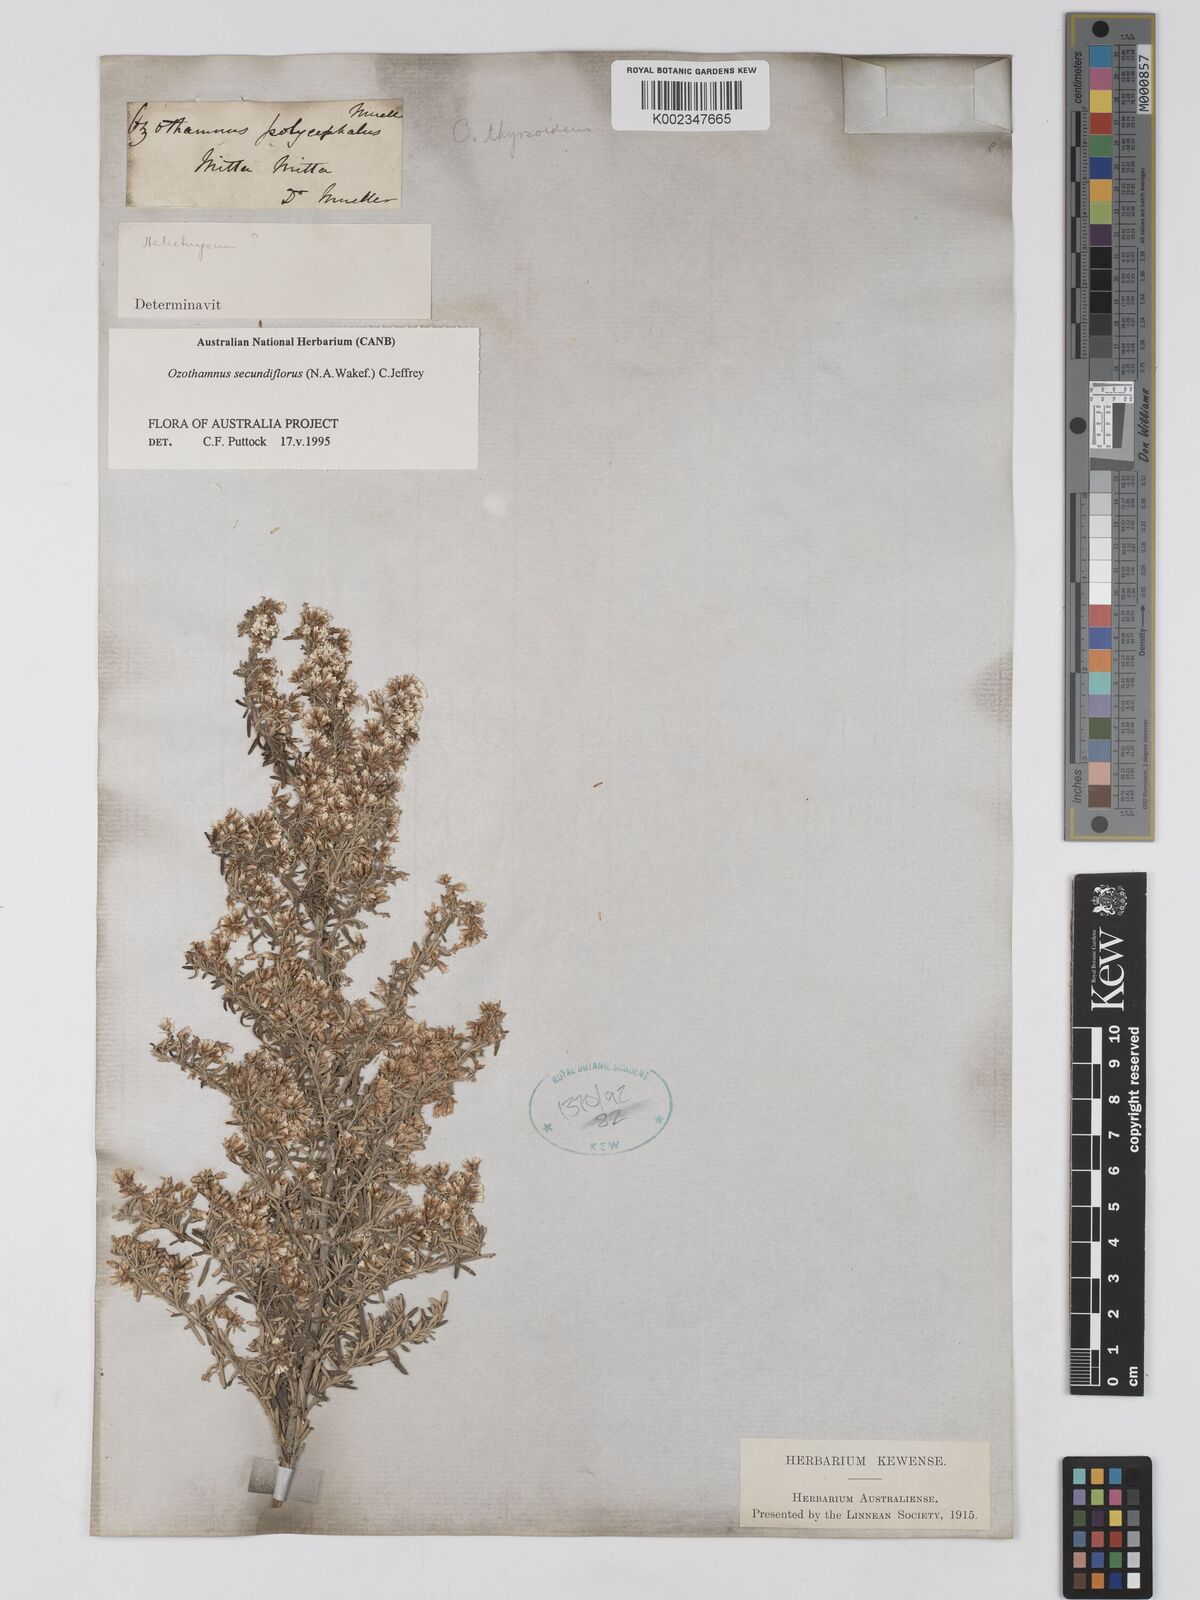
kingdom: Plantae
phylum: Tracheophyta
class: Magnoliopsida
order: Asterales
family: Asteraceae
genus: Ozothamnus
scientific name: Ozothamnus secundiflorus
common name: Cascade everlasting
